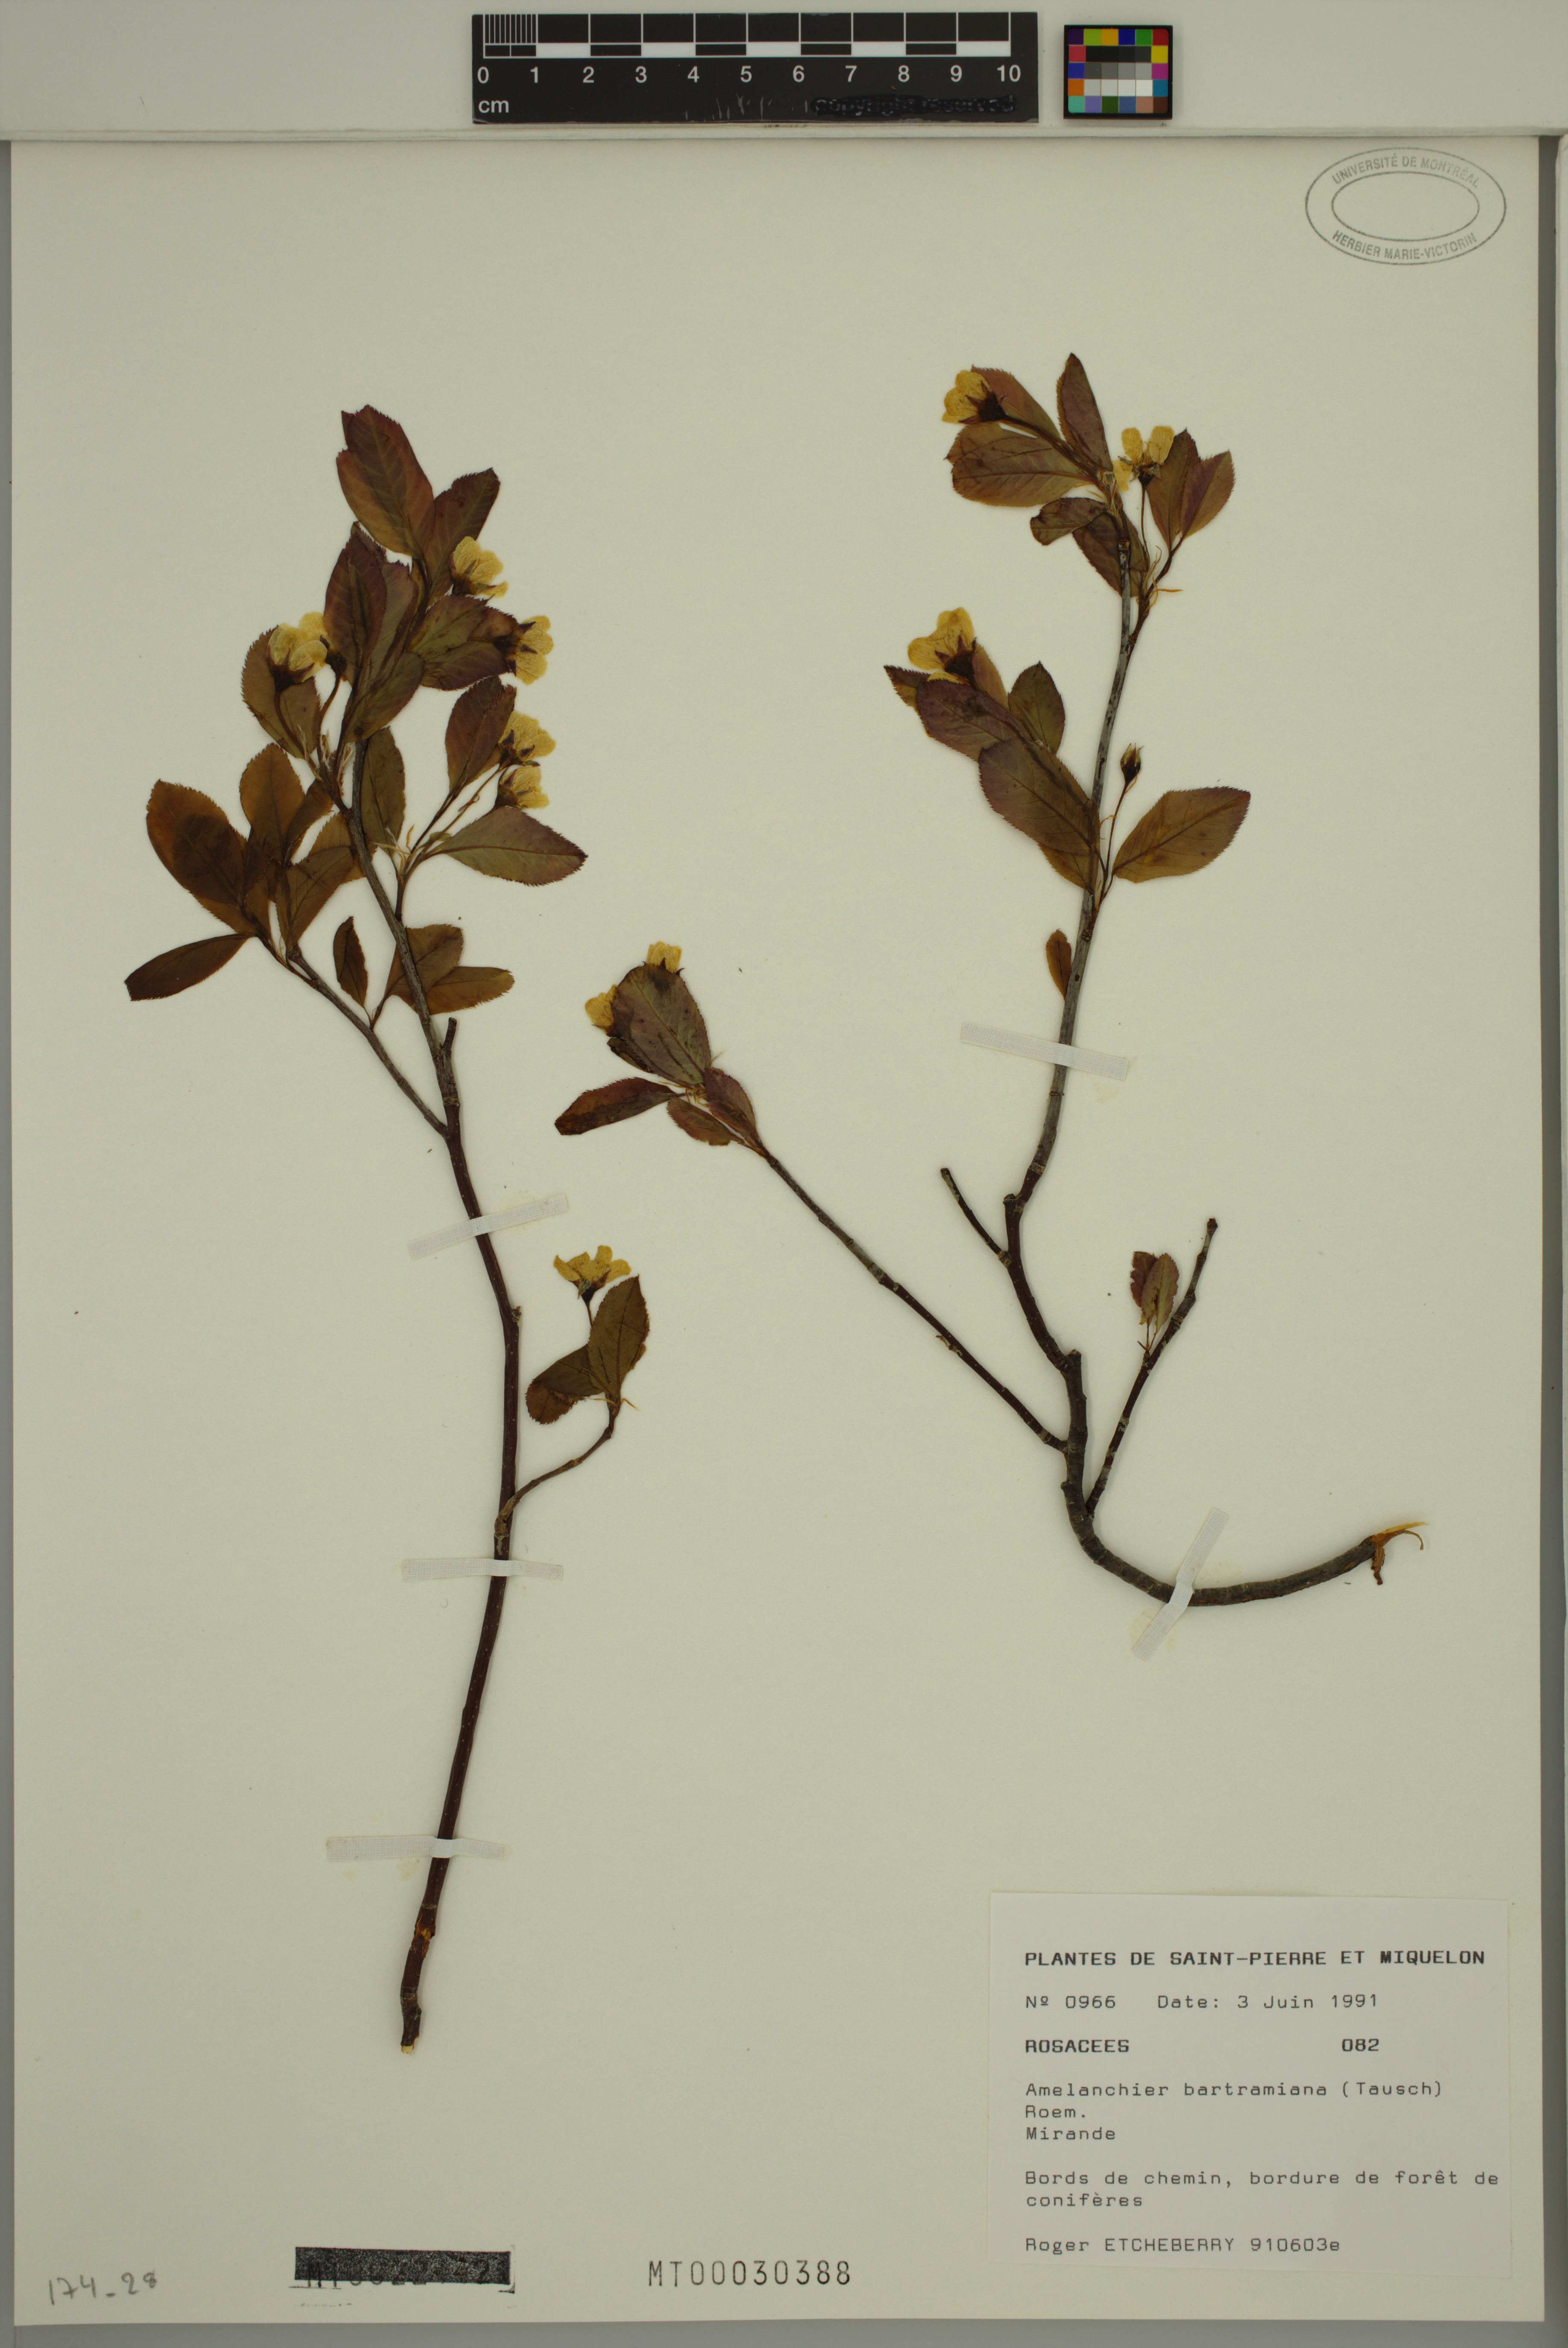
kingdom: Plantae
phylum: Tracheophyta
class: Magnoliopsida
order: Rosales
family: Rosaceae
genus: Amelanchier
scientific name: Amelanchier bartramiana
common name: Mountain serviceberry
